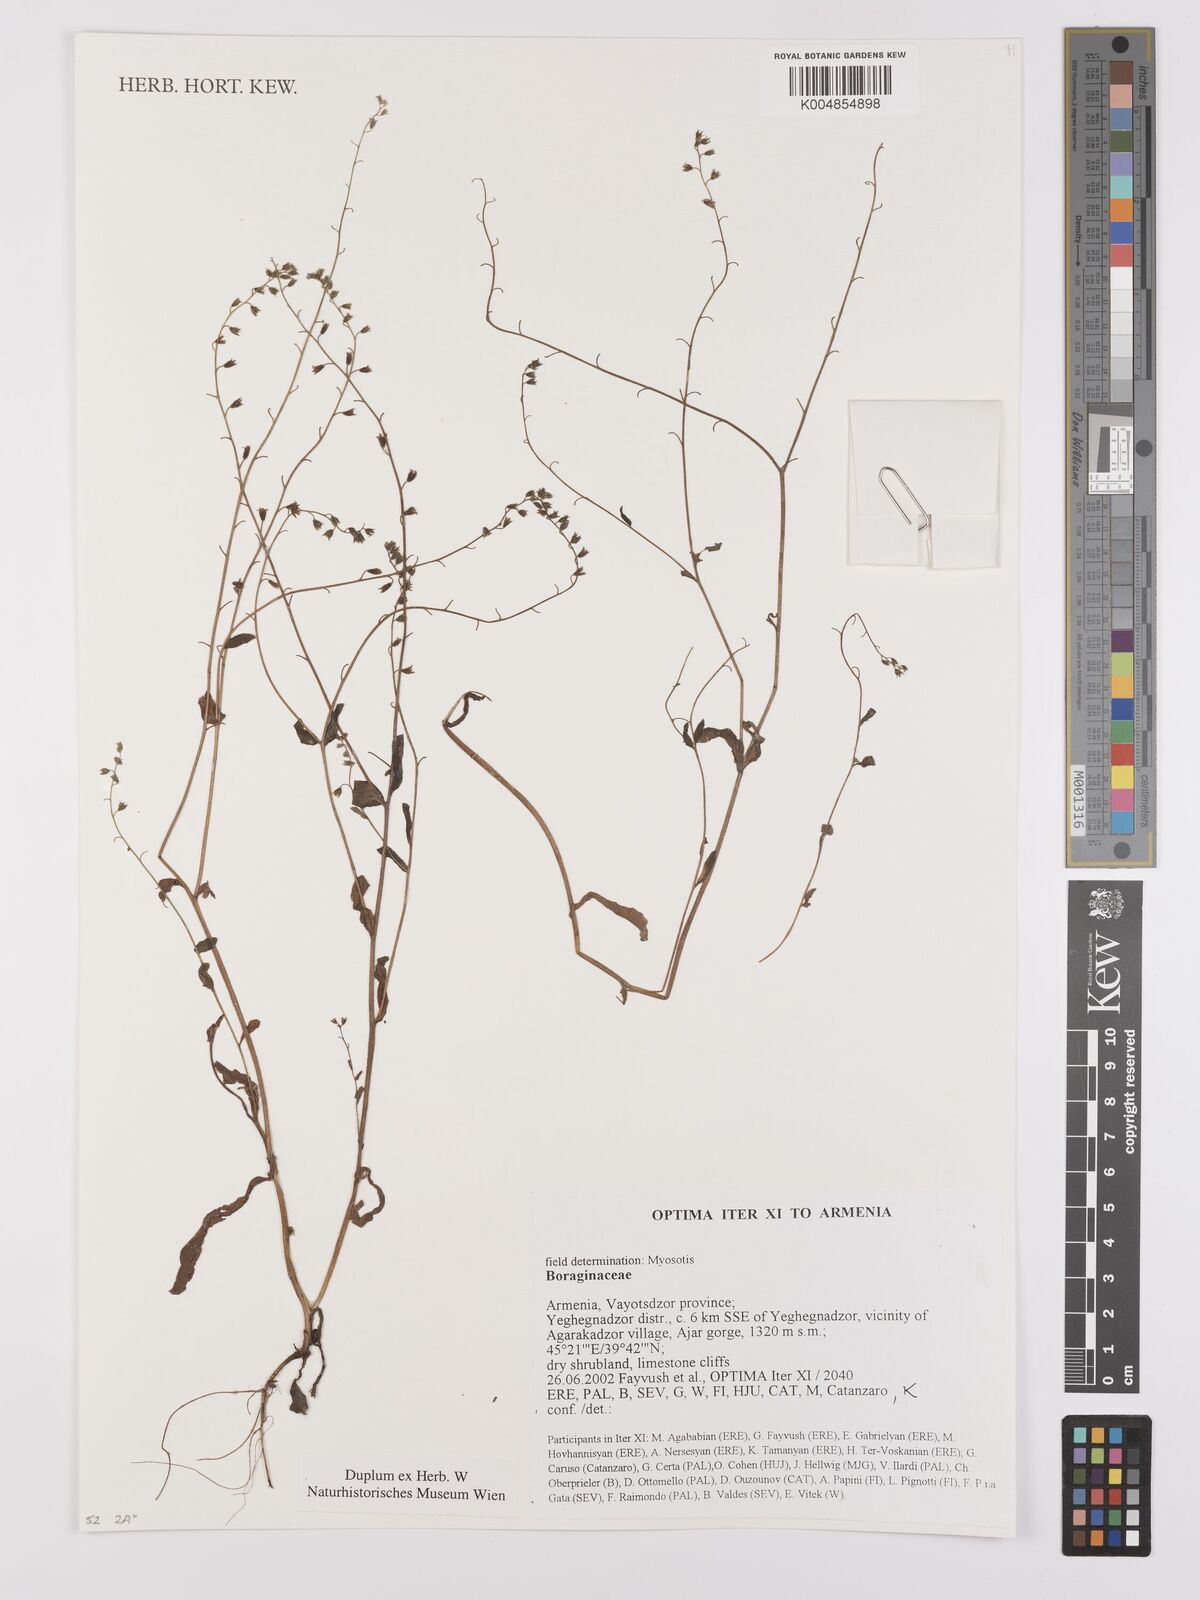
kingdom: Plantae
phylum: Tracheophyta
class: Magnoliopsida
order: Boraginales
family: Boraginaceae
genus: Myosotis
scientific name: Myosotis
